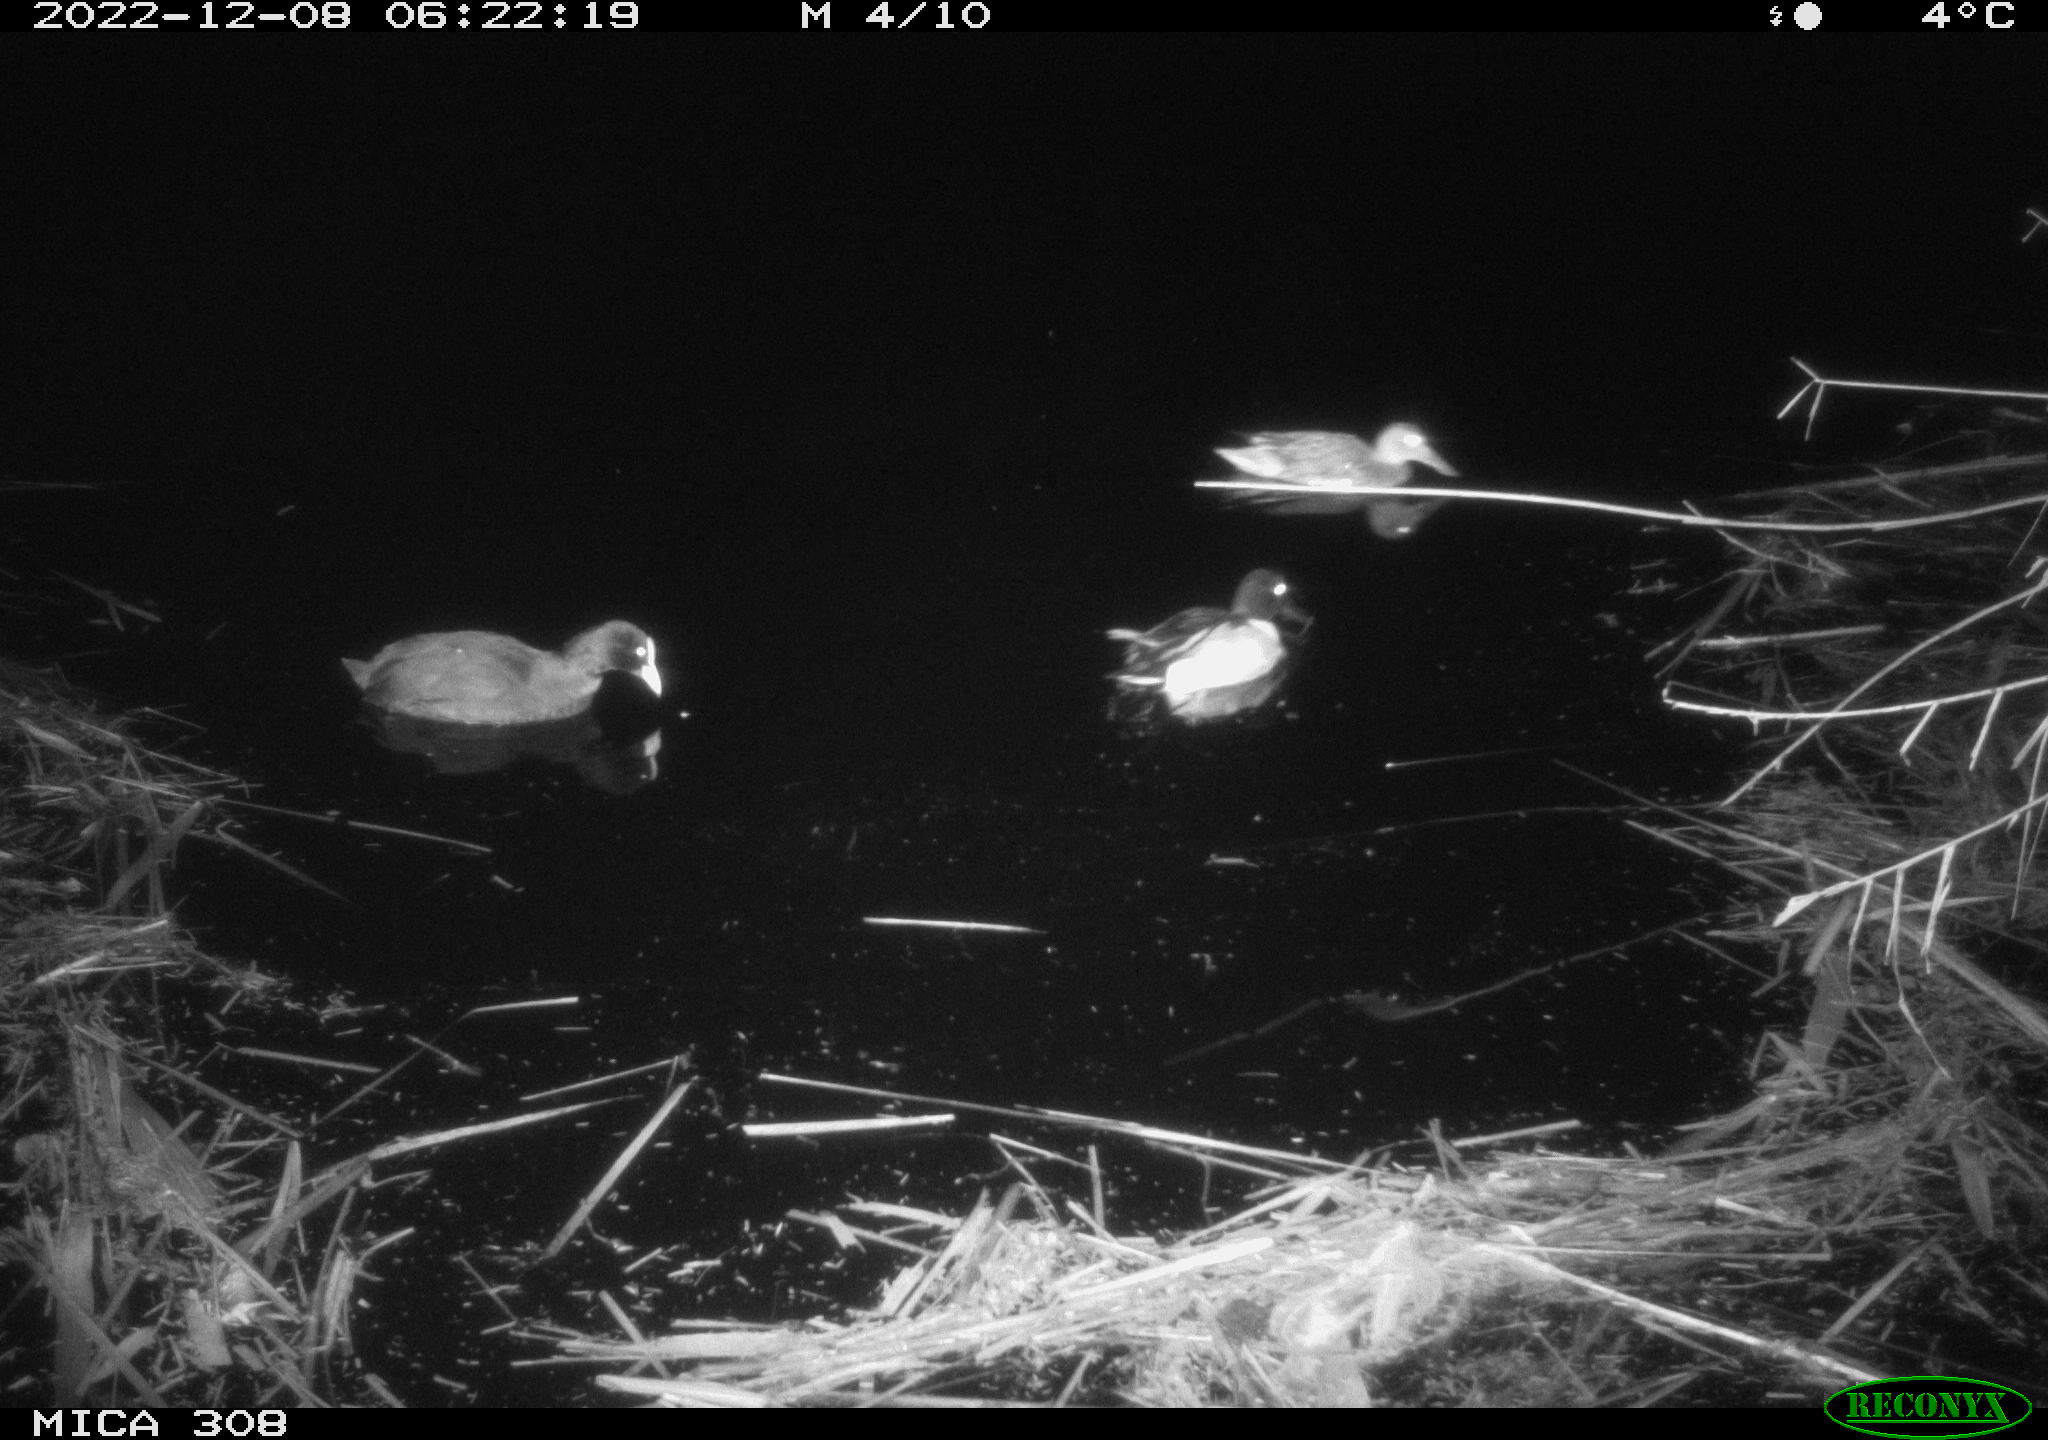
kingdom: Animalia
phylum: Chordata
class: Aves
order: Gruiformes
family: Rallidae
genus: Fulica
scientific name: Fulica atra
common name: Eurasian coot
